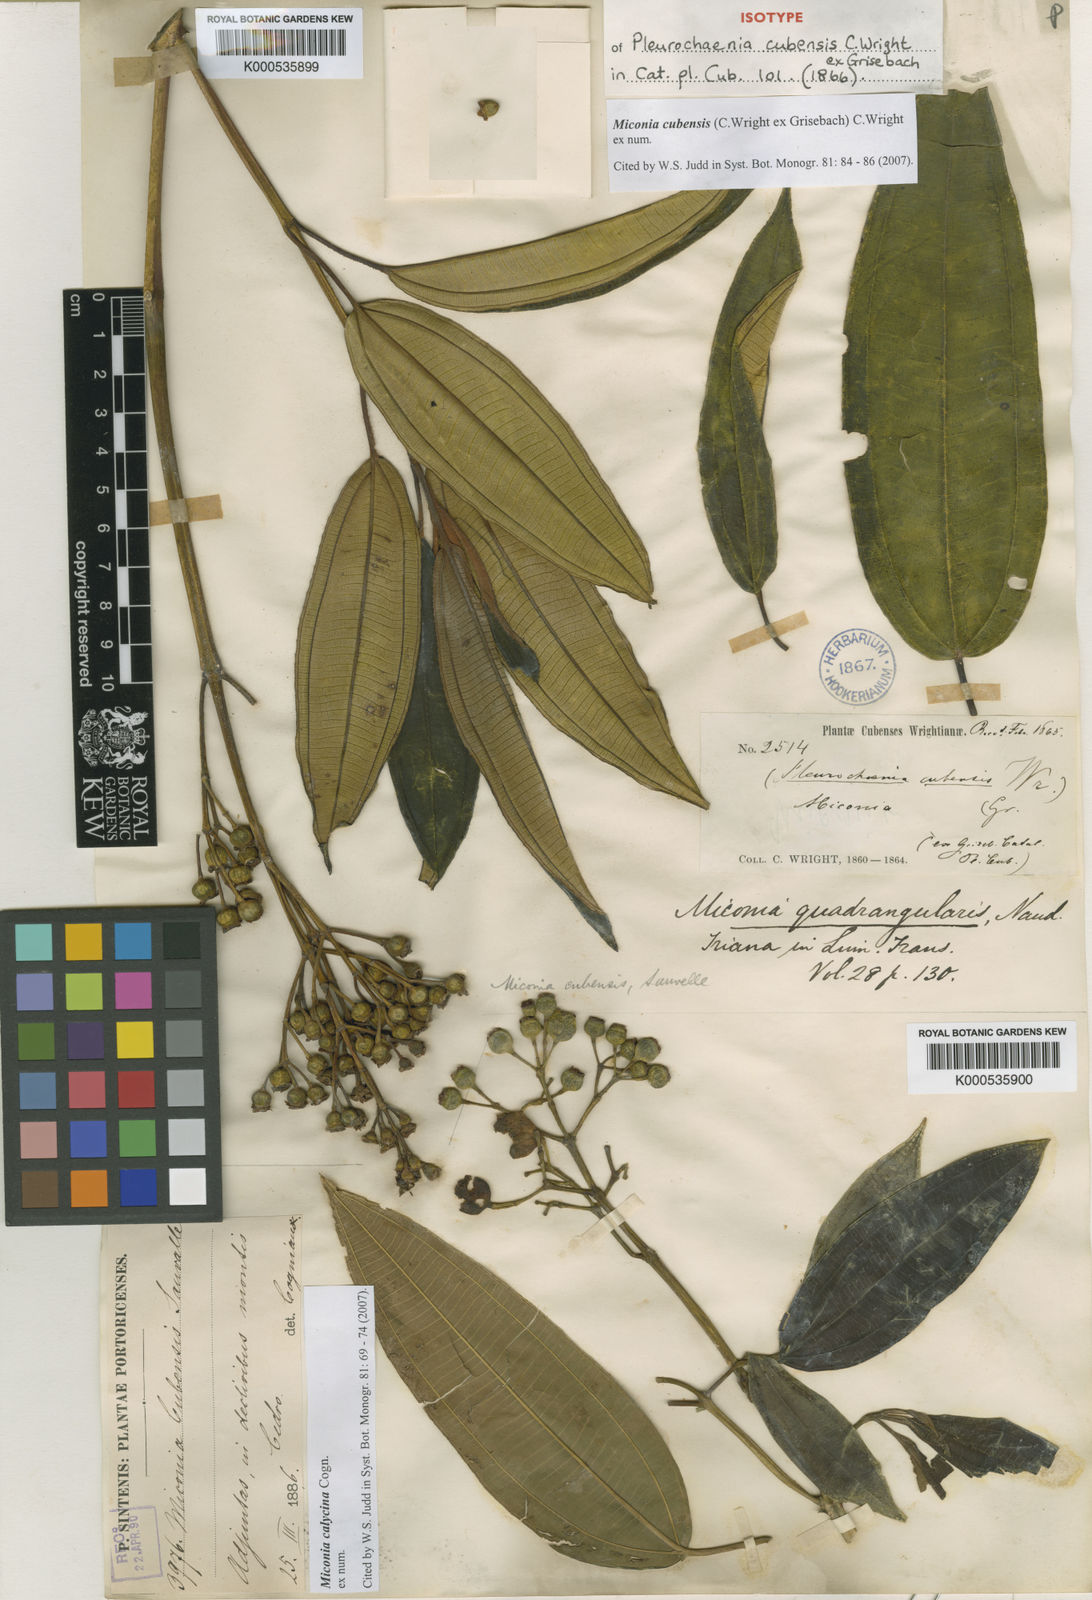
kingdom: Plantae
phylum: Tracheophyta
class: Magnoliopsida
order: Myrtales
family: Melastomataceae
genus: Miconia
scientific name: Miconia
